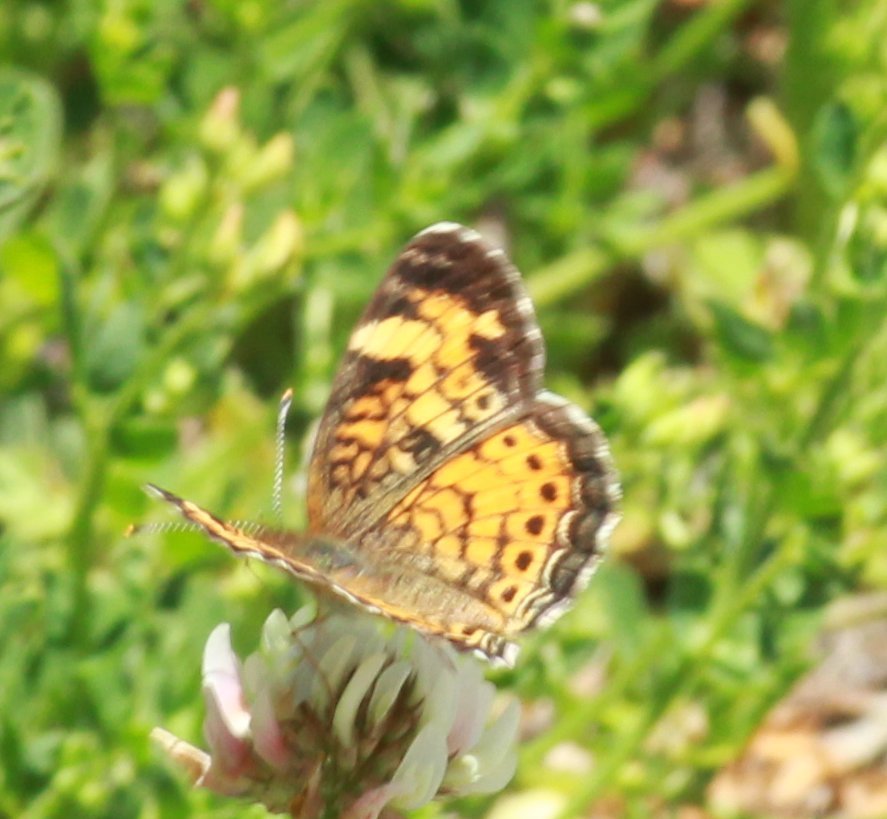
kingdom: Animalia
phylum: Arthropoda
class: Insecta
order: Lepidoptera
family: Nymphalidae
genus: Phyciodes
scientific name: Phyciodes tharos
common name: Northern Crescent
